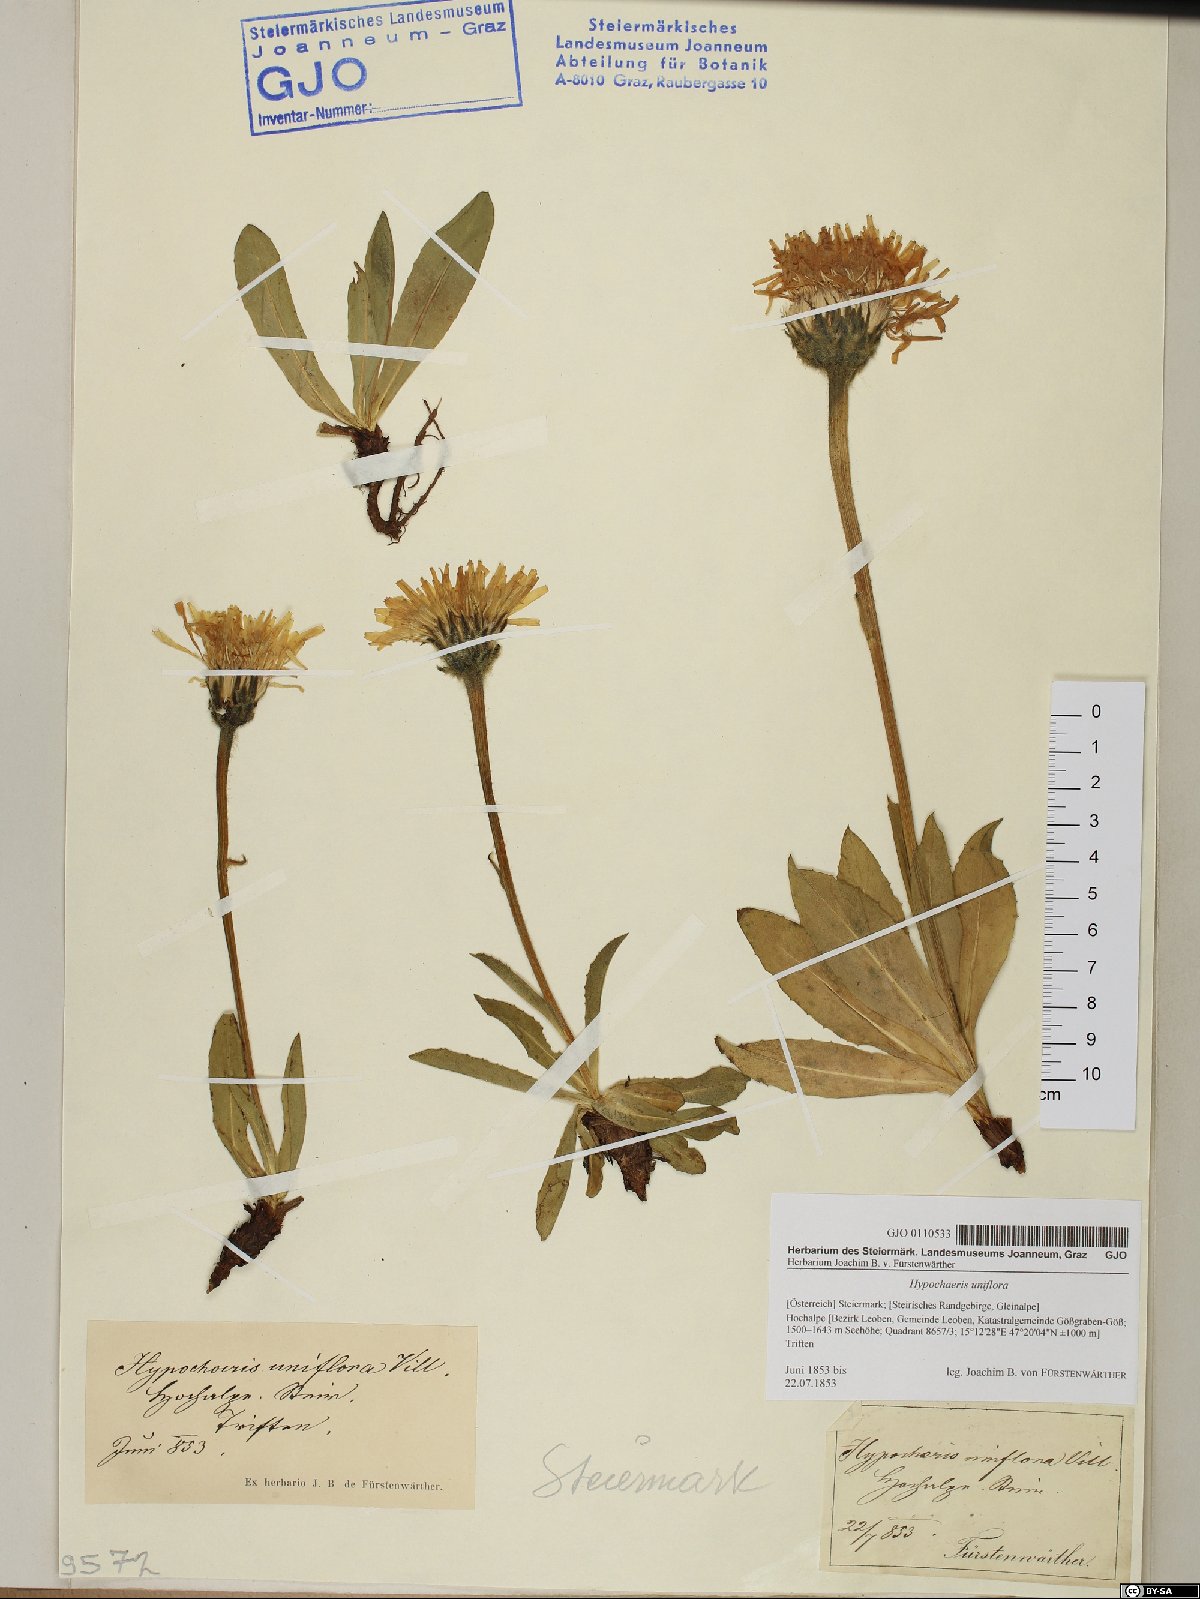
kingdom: Plantae
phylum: Tracheophyta
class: Magnoliopsida
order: Asterales
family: Asteraceae
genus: Trommsdorffia
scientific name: Trommsdorffia uniflora
